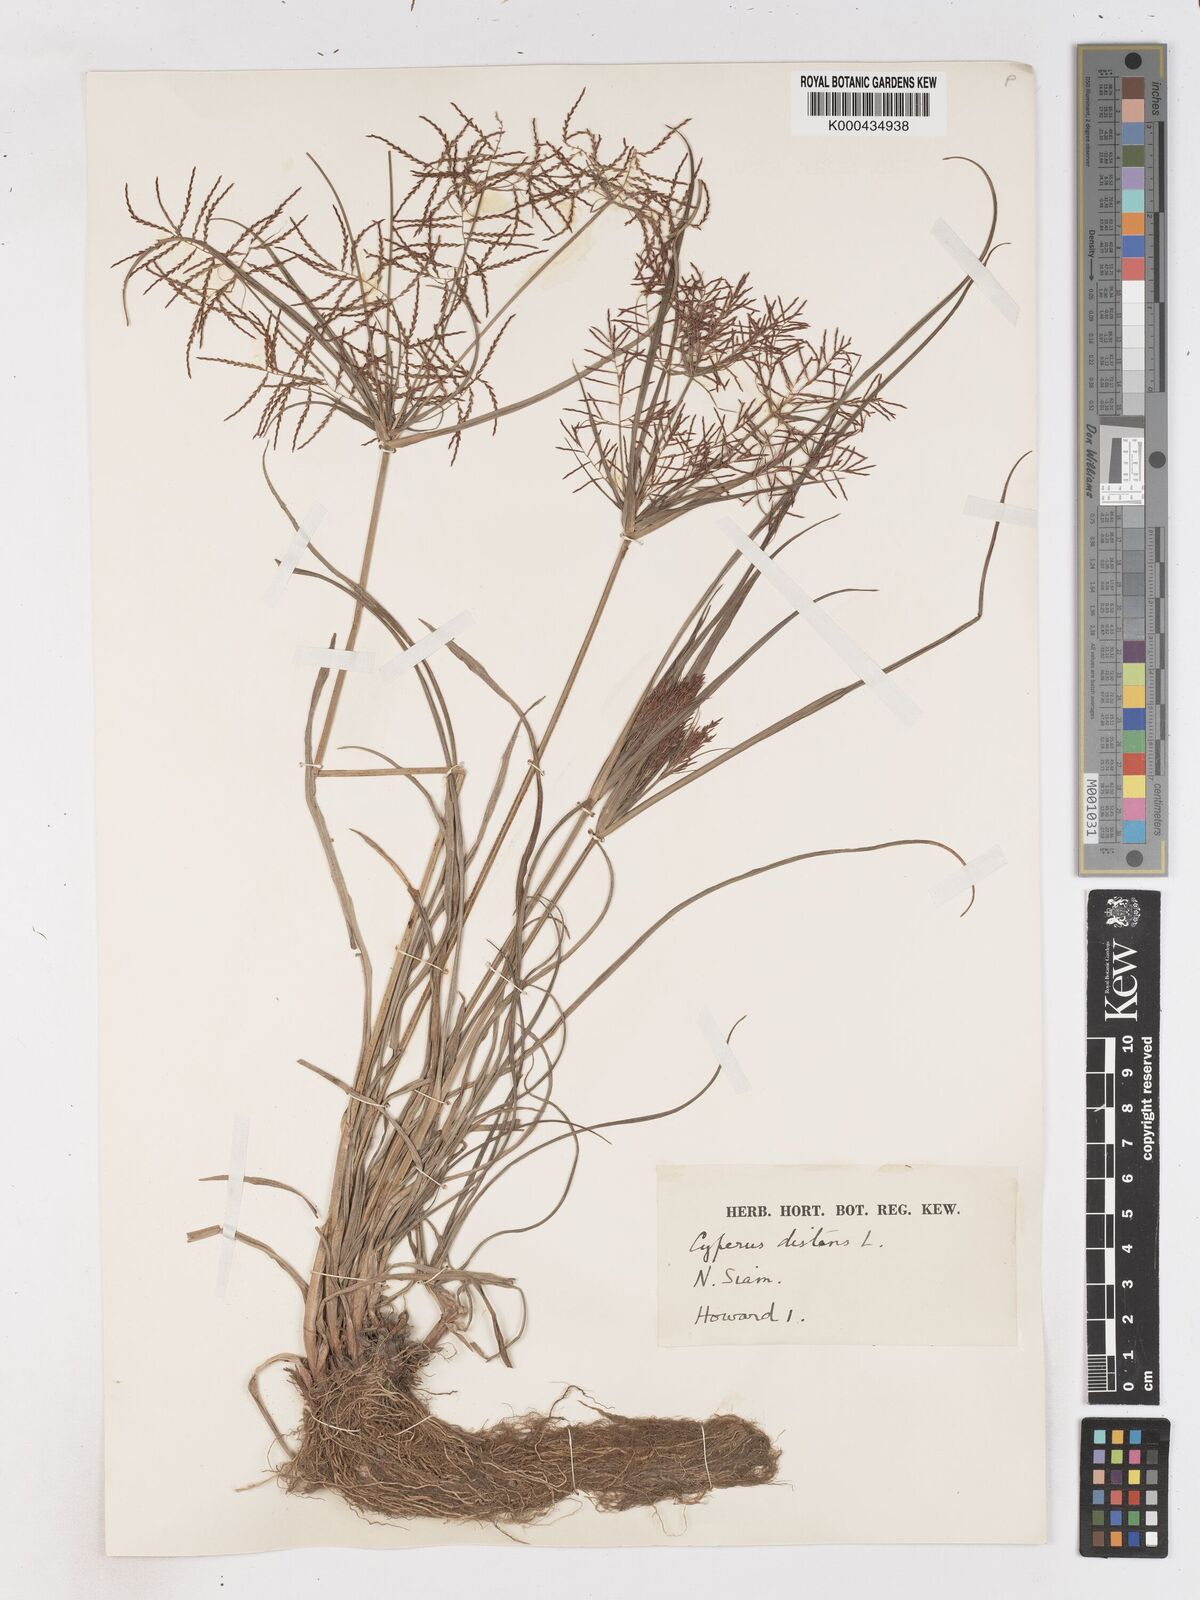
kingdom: Plantae
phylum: Tracheophyta
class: Liliopsida
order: Poales
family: Cyperaceae
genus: Cyperus
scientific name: Cyperus distans
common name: Slender cyperus
